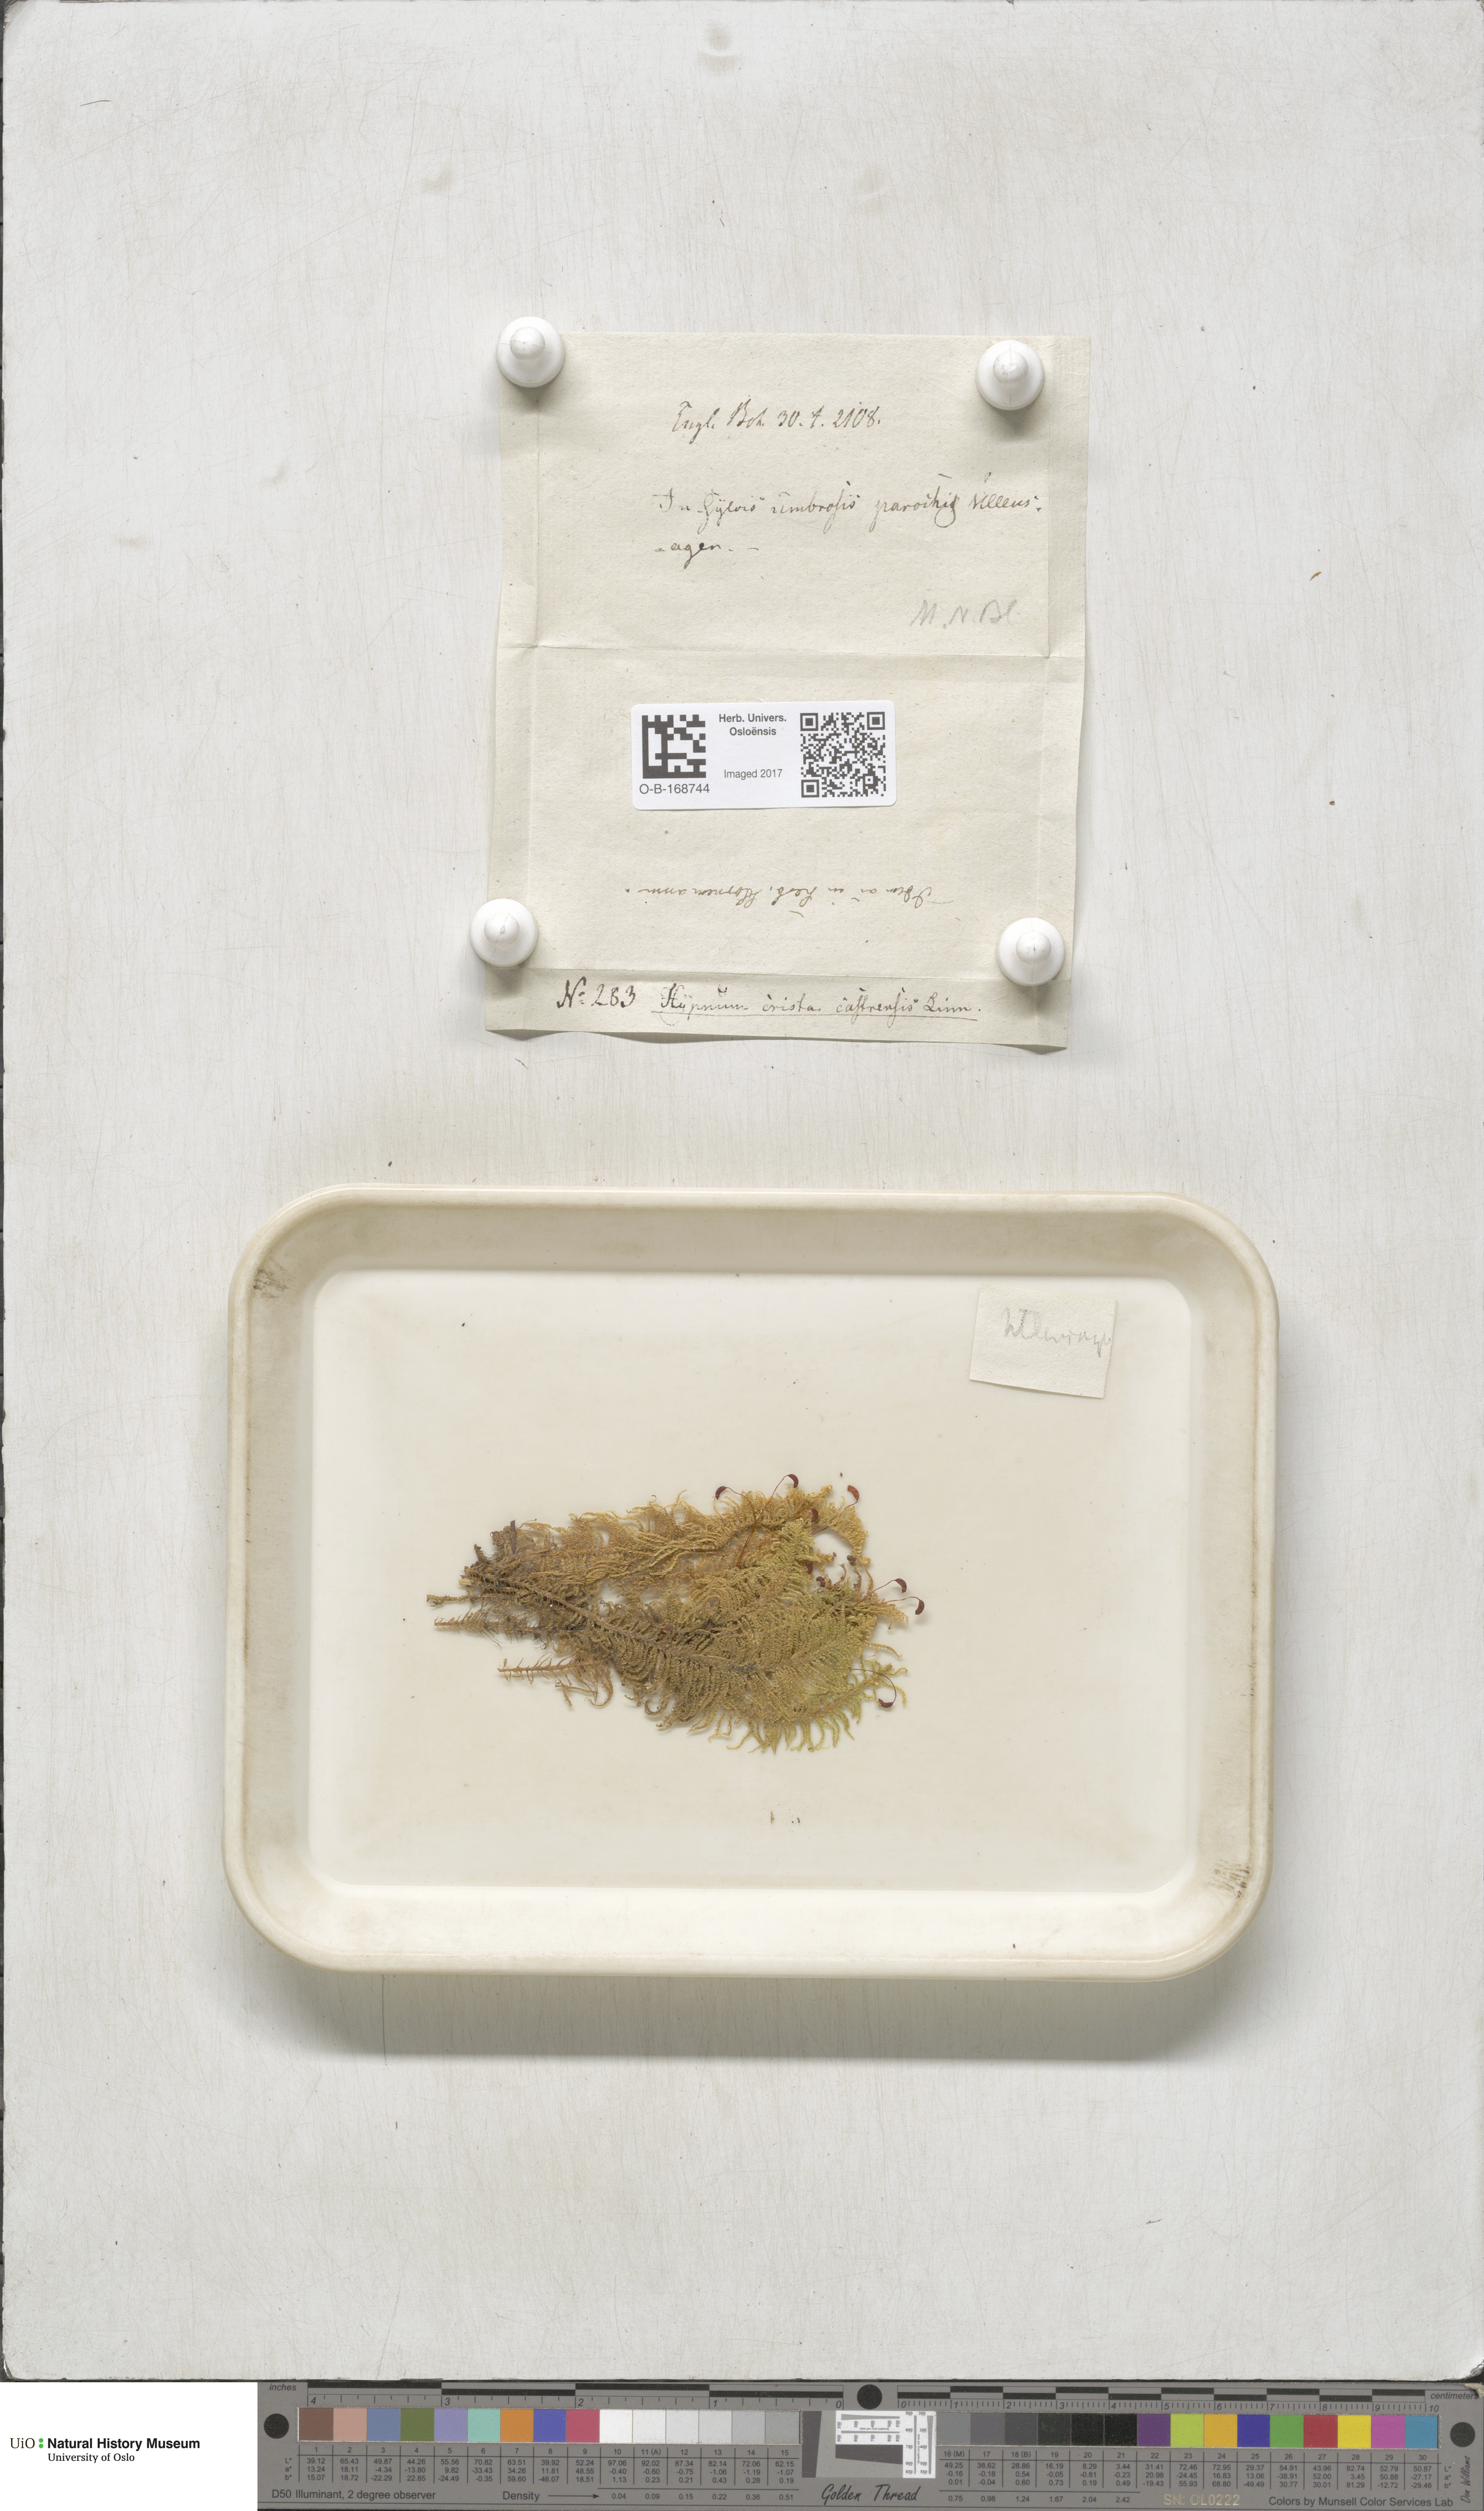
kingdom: Plantae
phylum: Bryophyta
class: Bryopsida
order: Hypnales
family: Pylaisiaceae
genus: Ptilium
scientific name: Ptilium crista-castrensis
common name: Knight's plume moss
